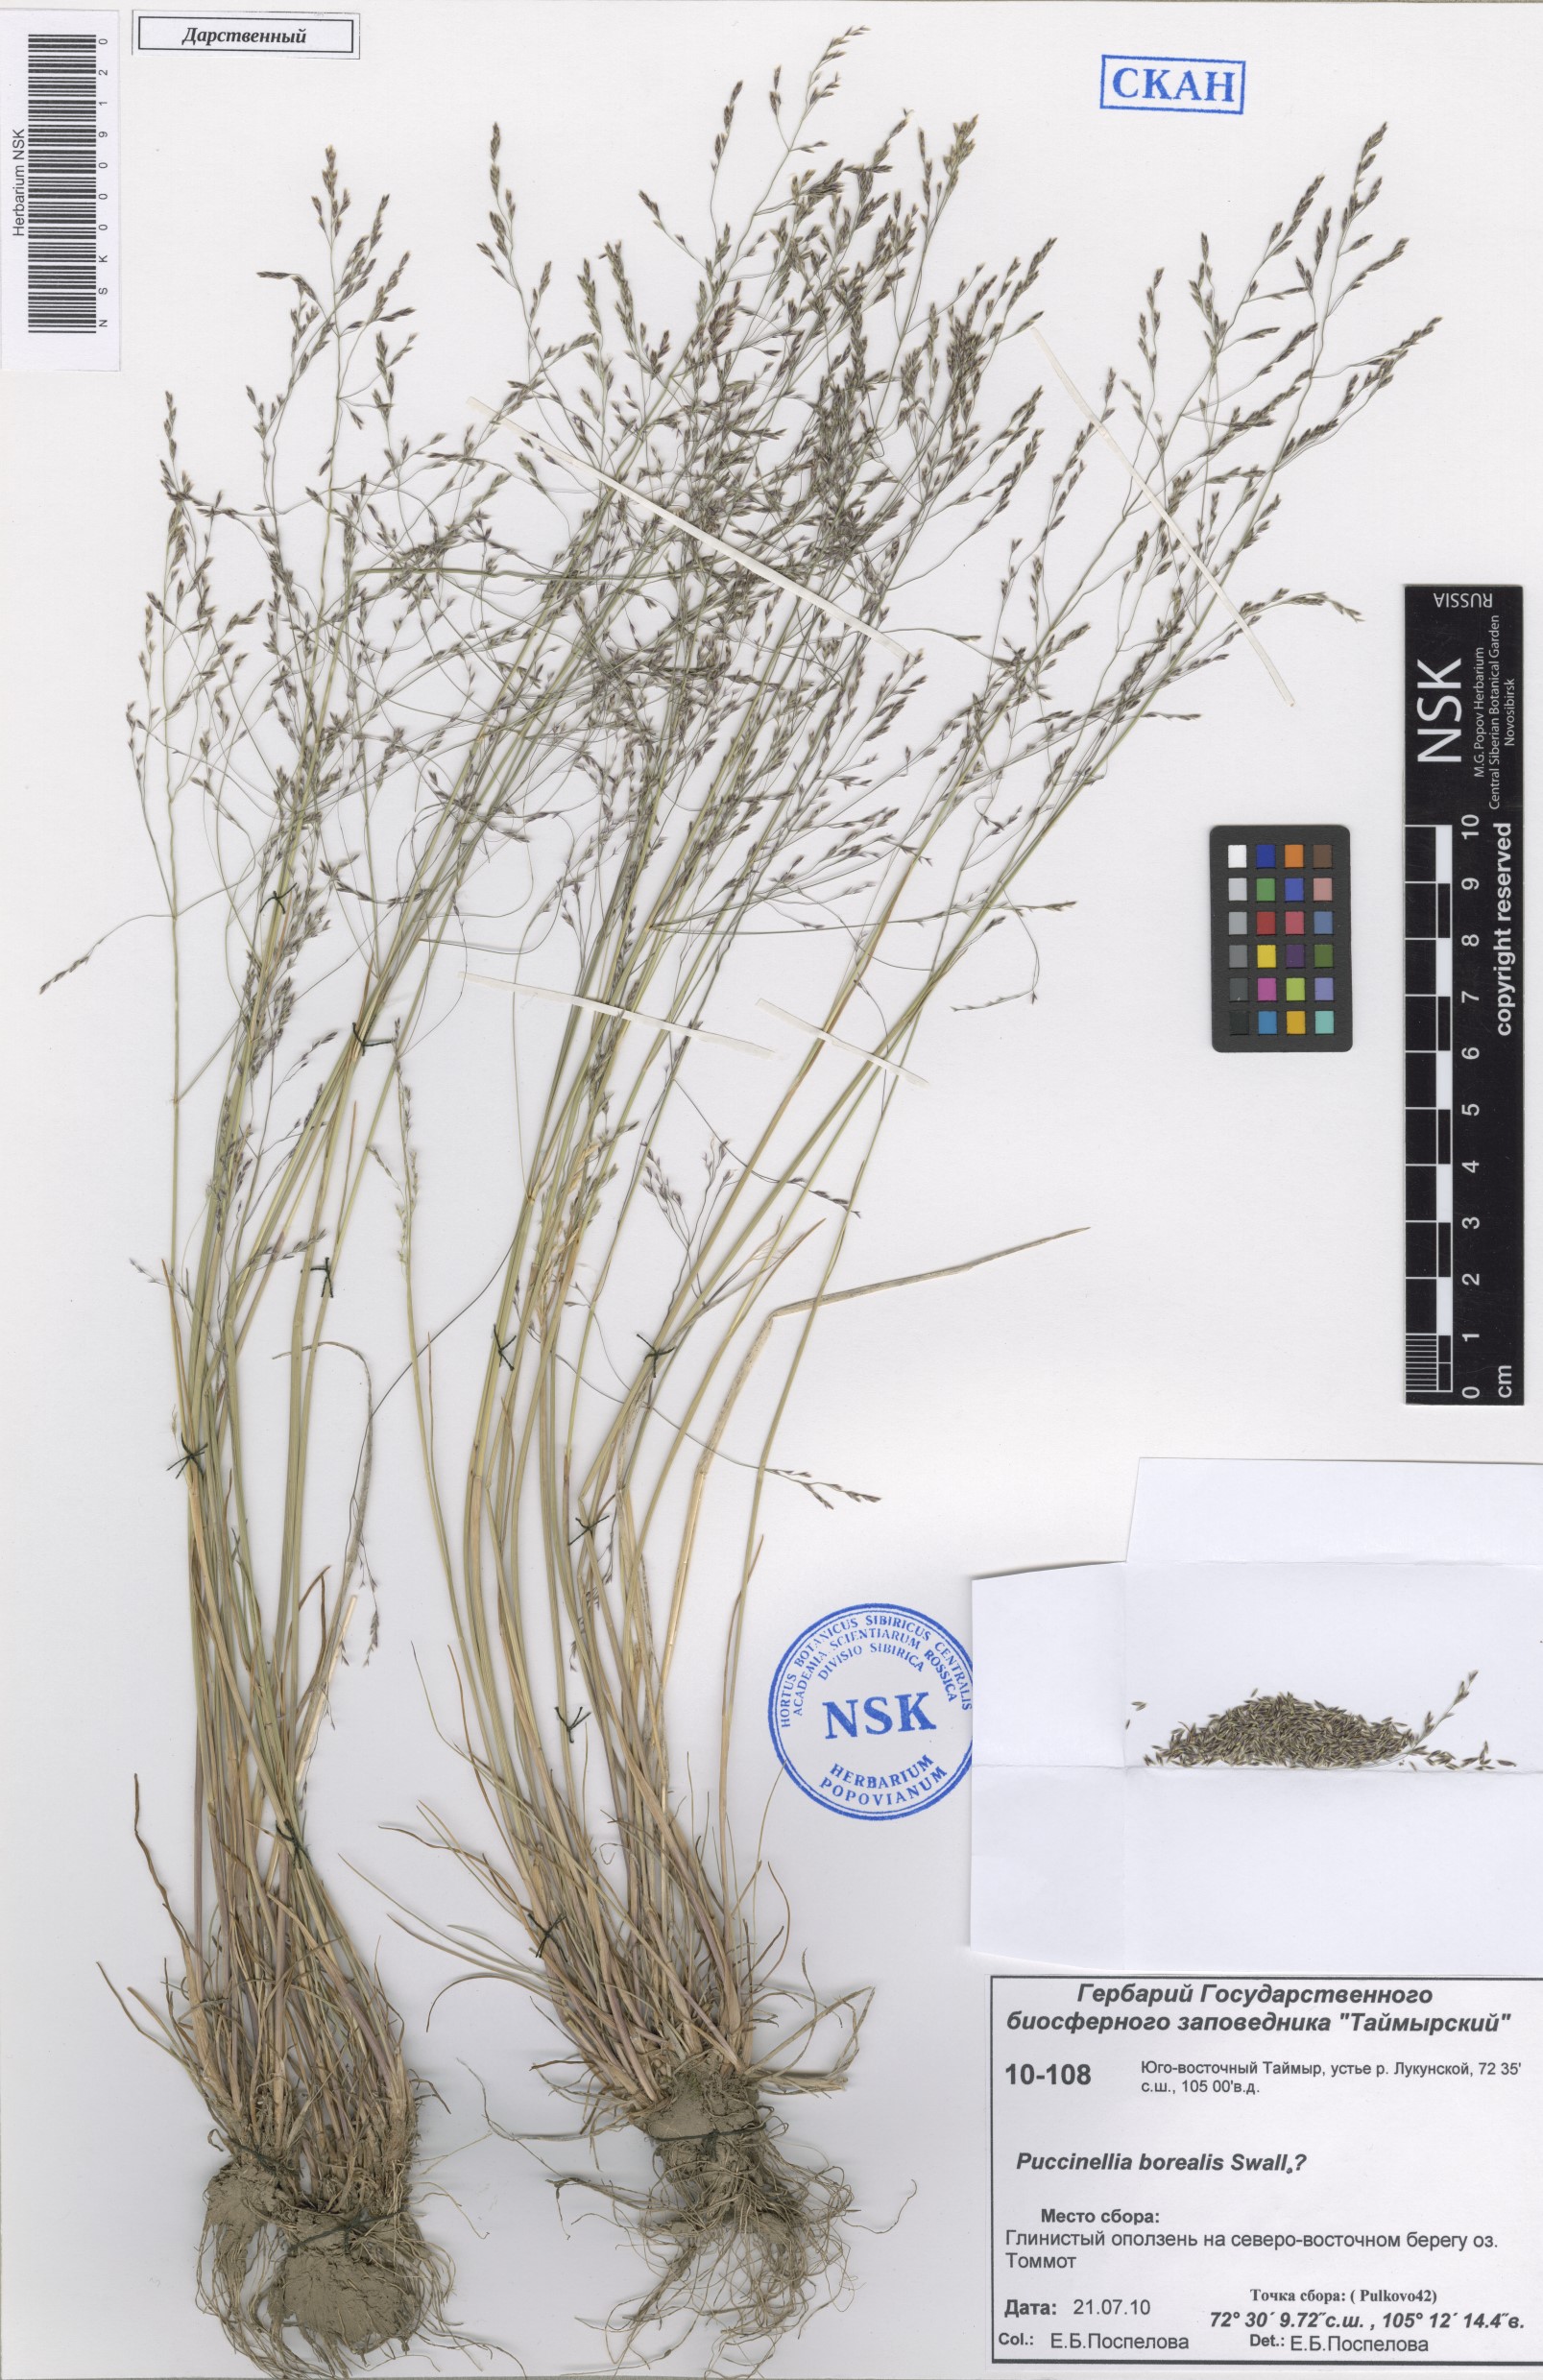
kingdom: Plantae
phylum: Tracheophyta
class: Liliopsida
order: Poales
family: Poaceae
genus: Puccinellia
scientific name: Puccinellia nuttalliana
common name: Nuttall's alkali grass
